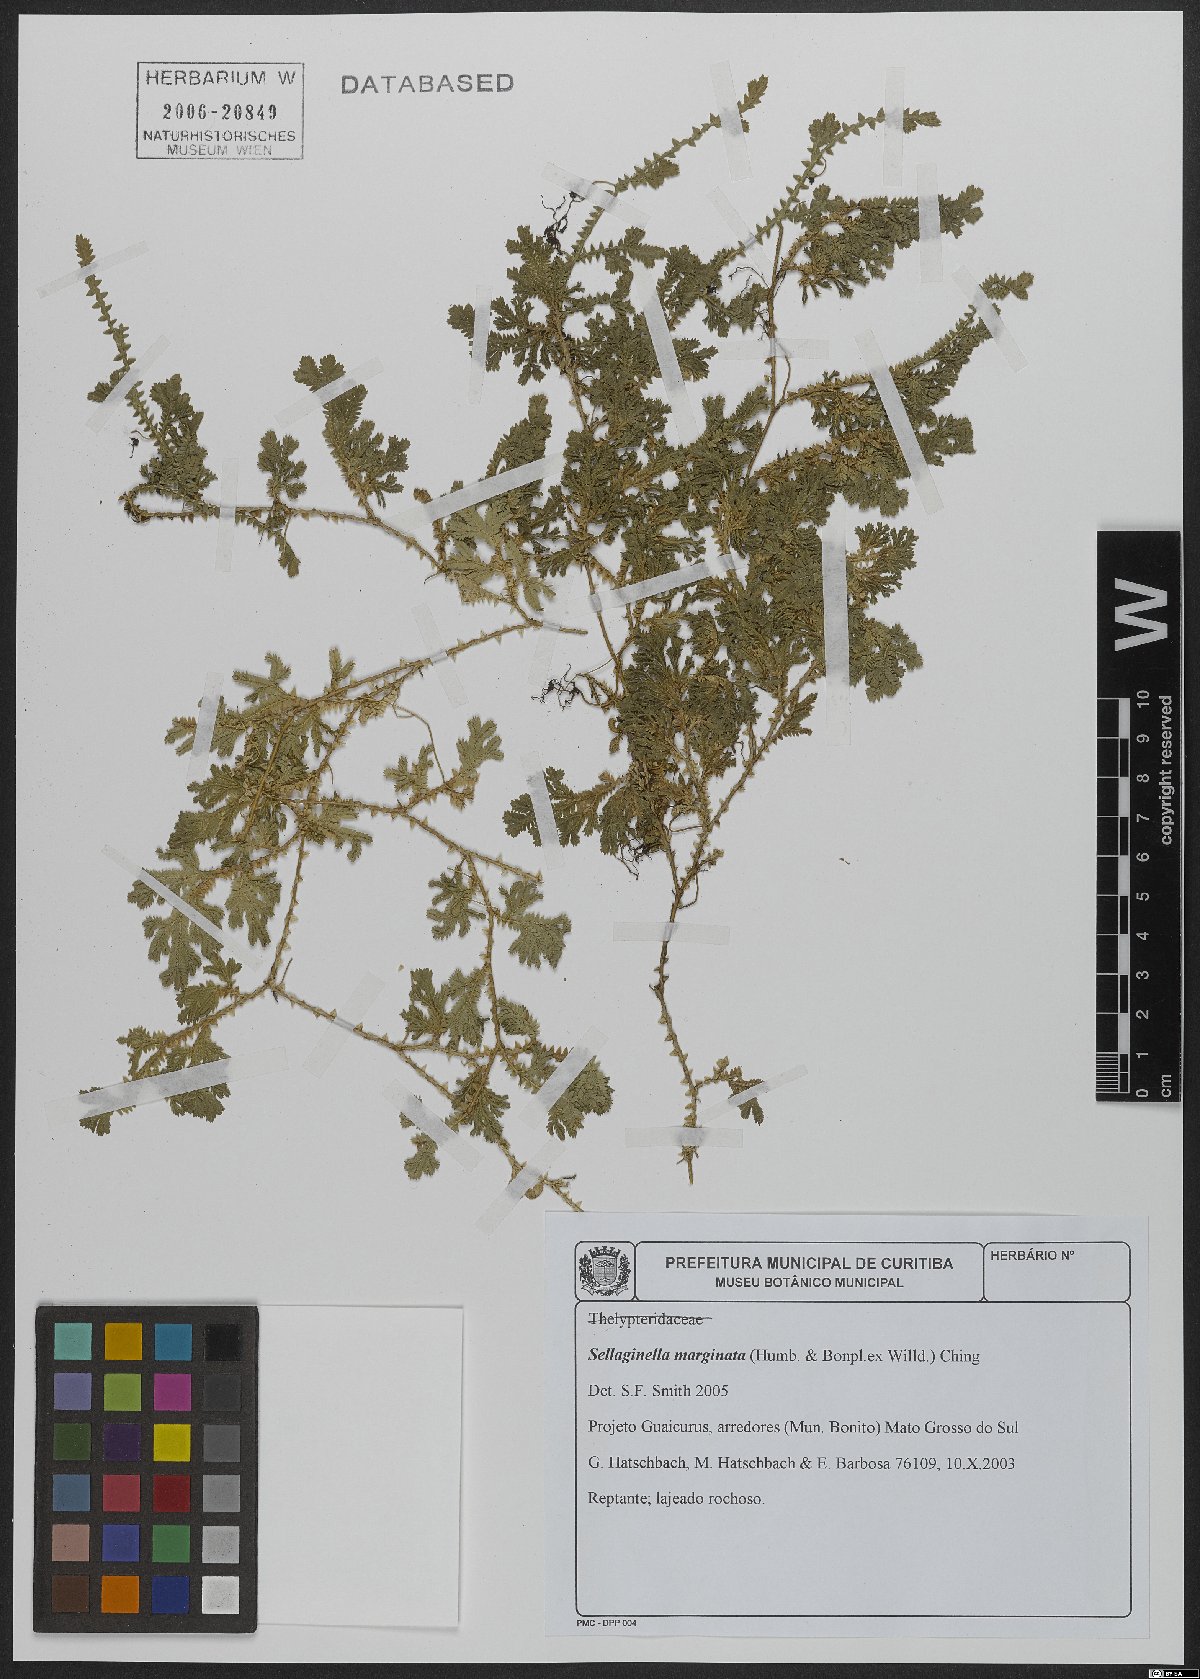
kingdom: Plantae
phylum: Tracheophyta
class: Lycopodiopsida
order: Selaginellales
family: Selaginellaceae
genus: Selaginella
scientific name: Selaginella marginata
